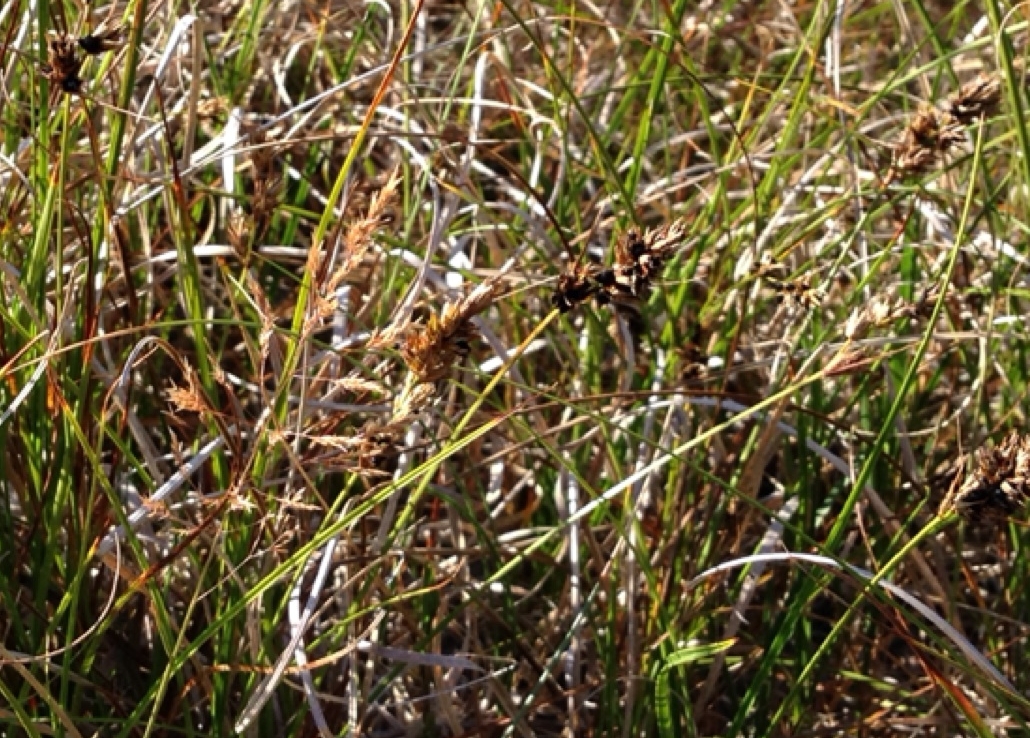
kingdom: Fungi
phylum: Basidiomycota
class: Ustilaginomycetes
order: Ustilaginales
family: Anthracoideaceae
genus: Anthracoidea
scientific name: Anthracoidea arenariae
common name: sandstar-brand
